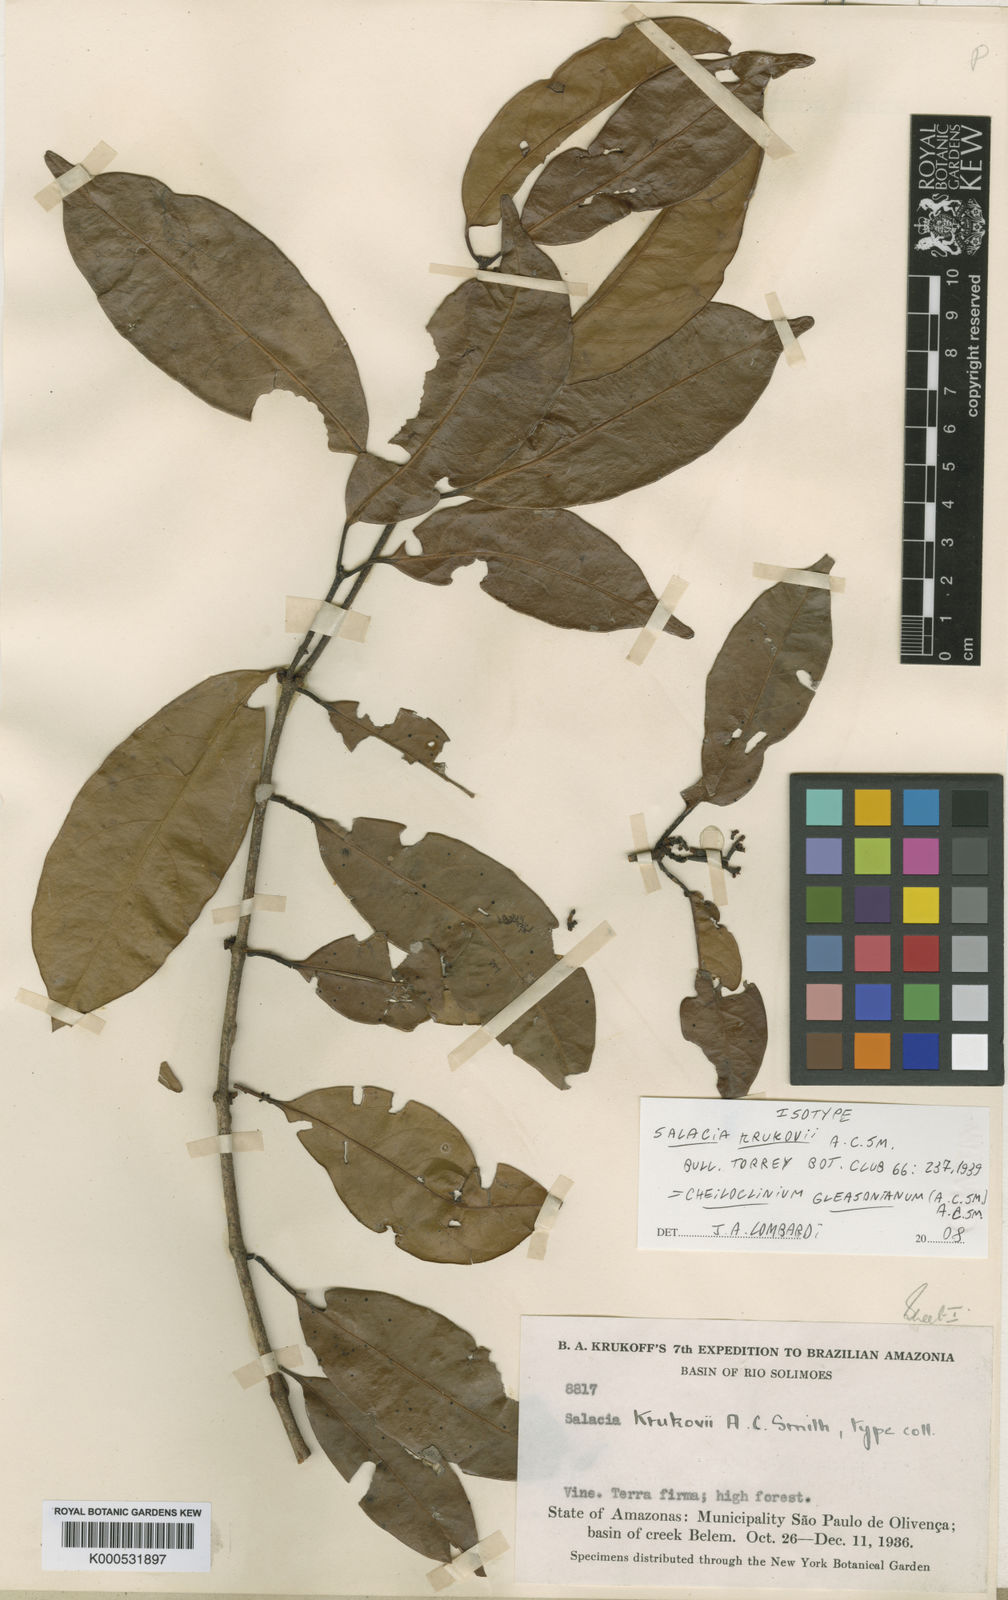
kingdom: Plantae
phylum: Tracheophyta
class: Magnoliopsida
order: Celastrales
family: Celastraceae
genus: Cheiloclinium
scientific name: Cheiloclinium gleasonianum
